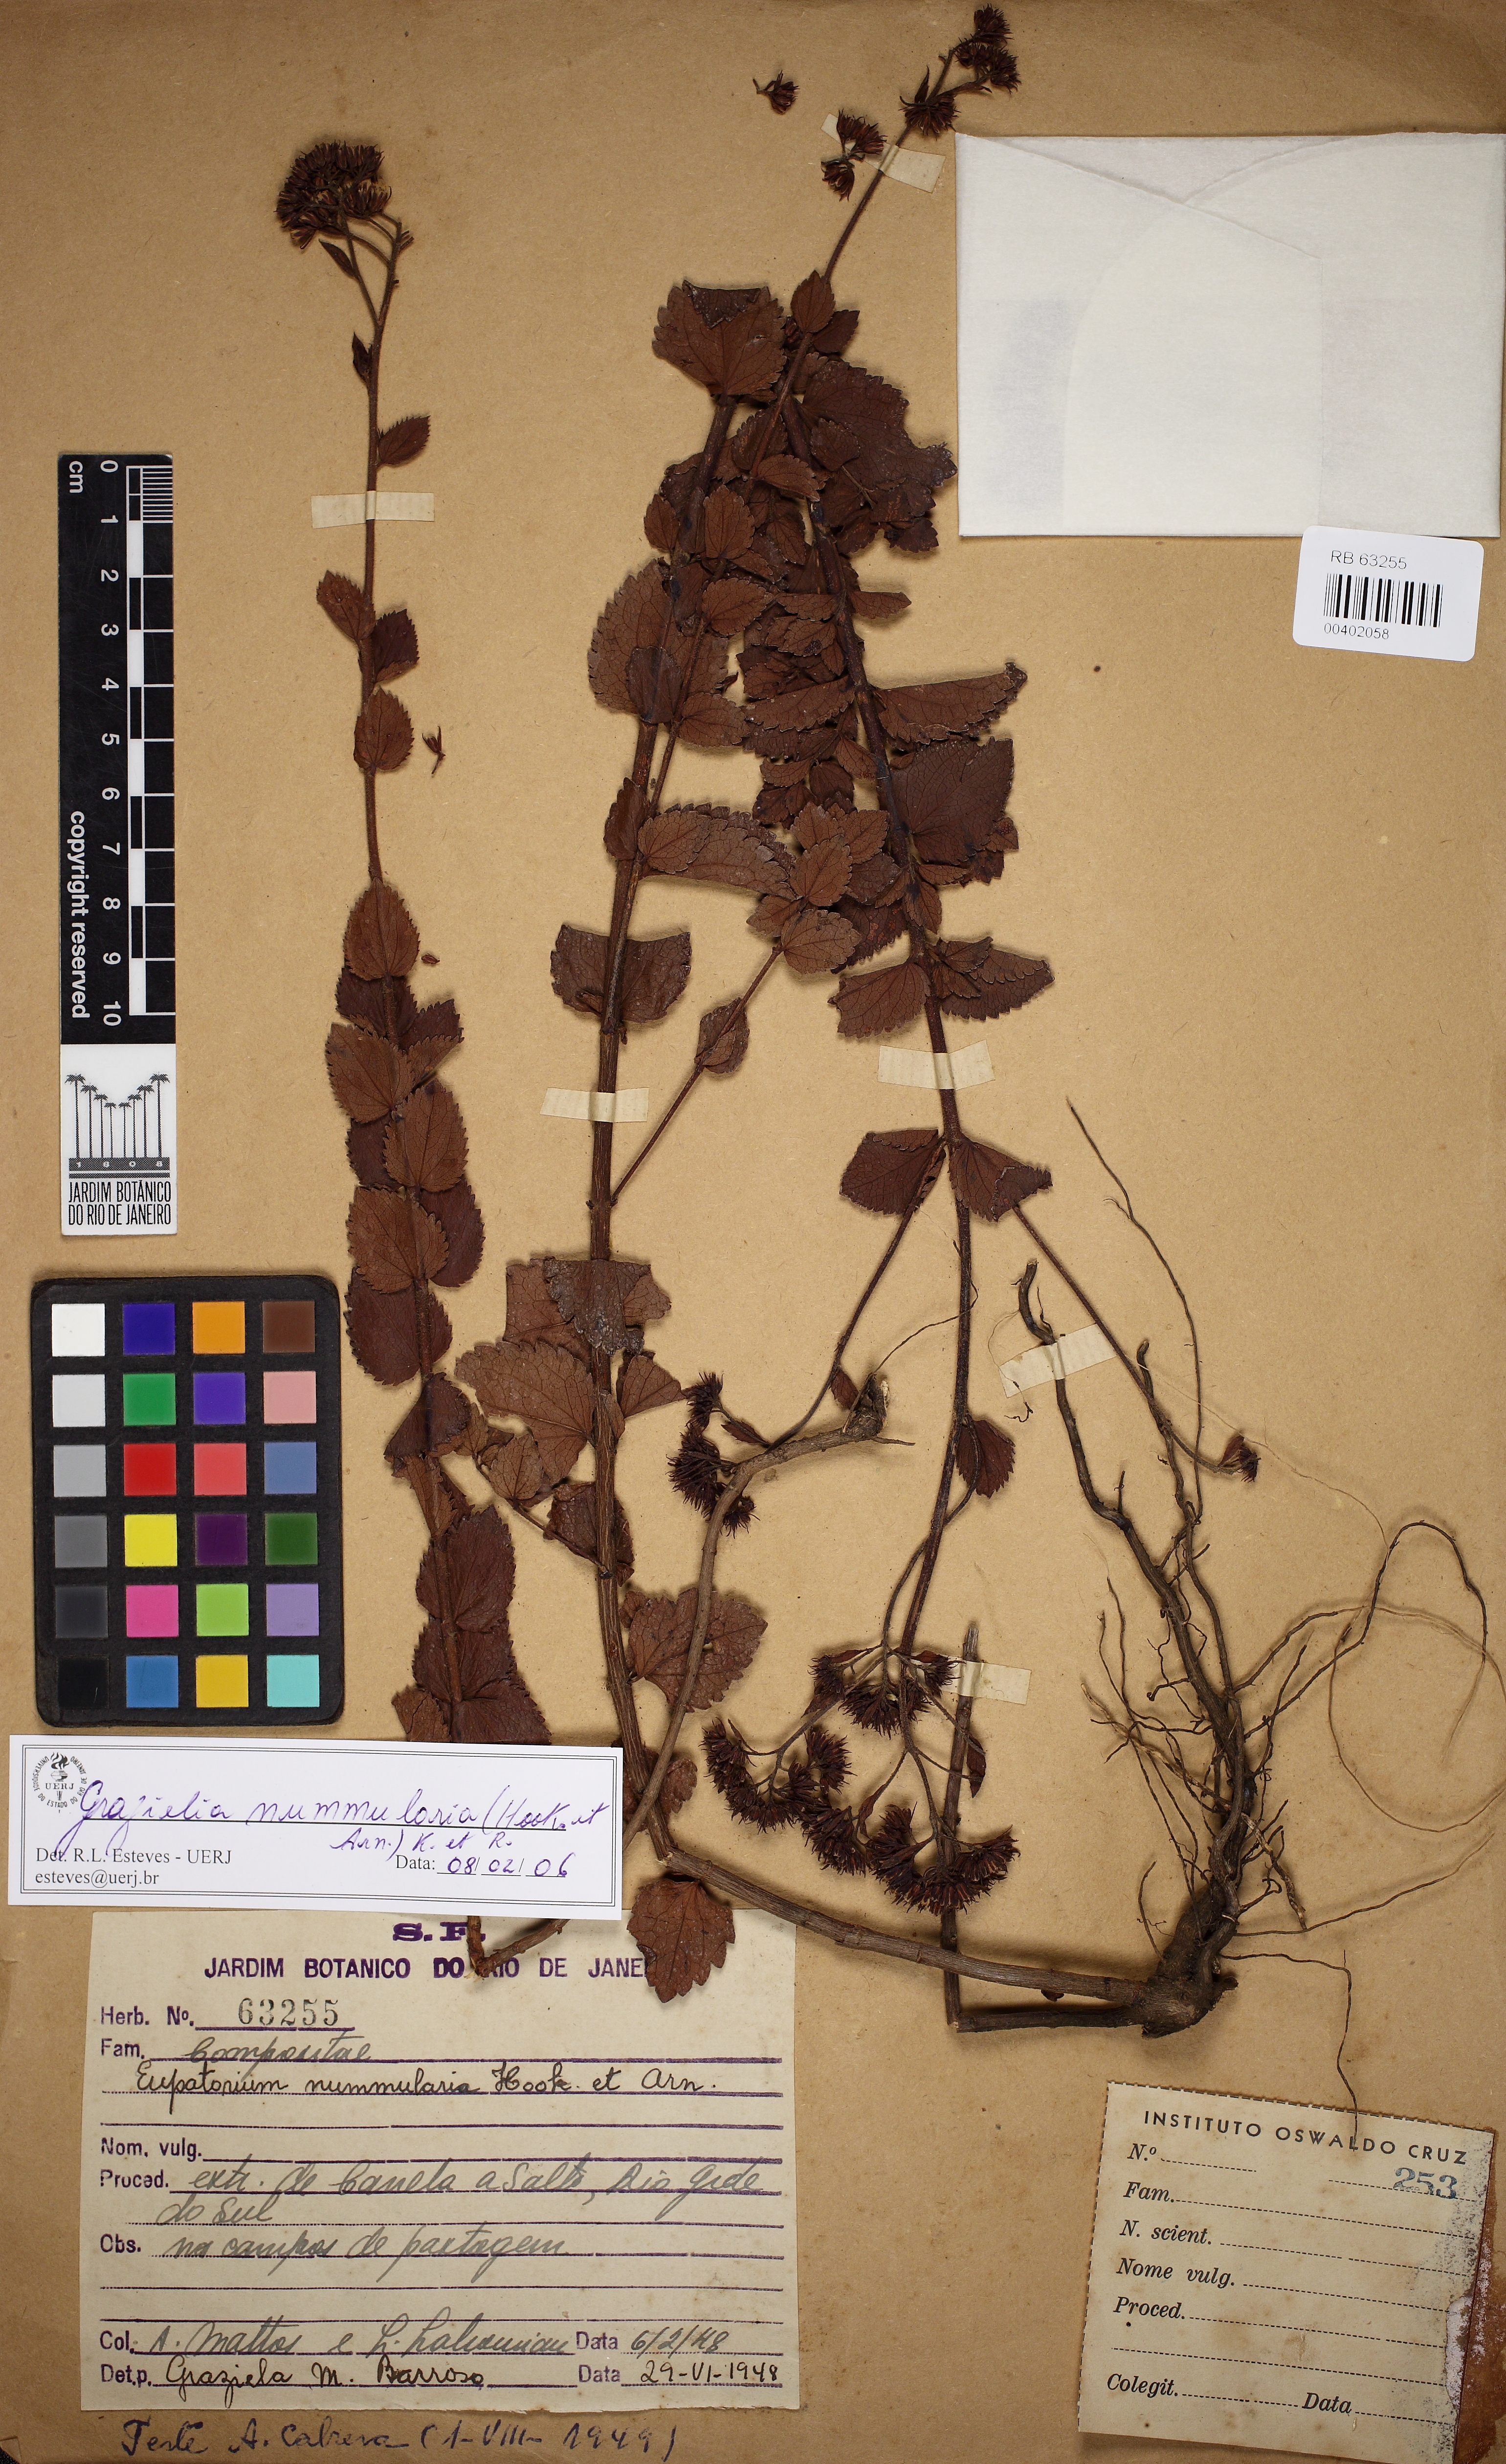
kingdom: Plantae
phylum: Tracheophyta
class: Magnoliopsida
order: Asterales
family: Asteraceae
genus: Grazielia
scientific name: Grazielia nummularia
